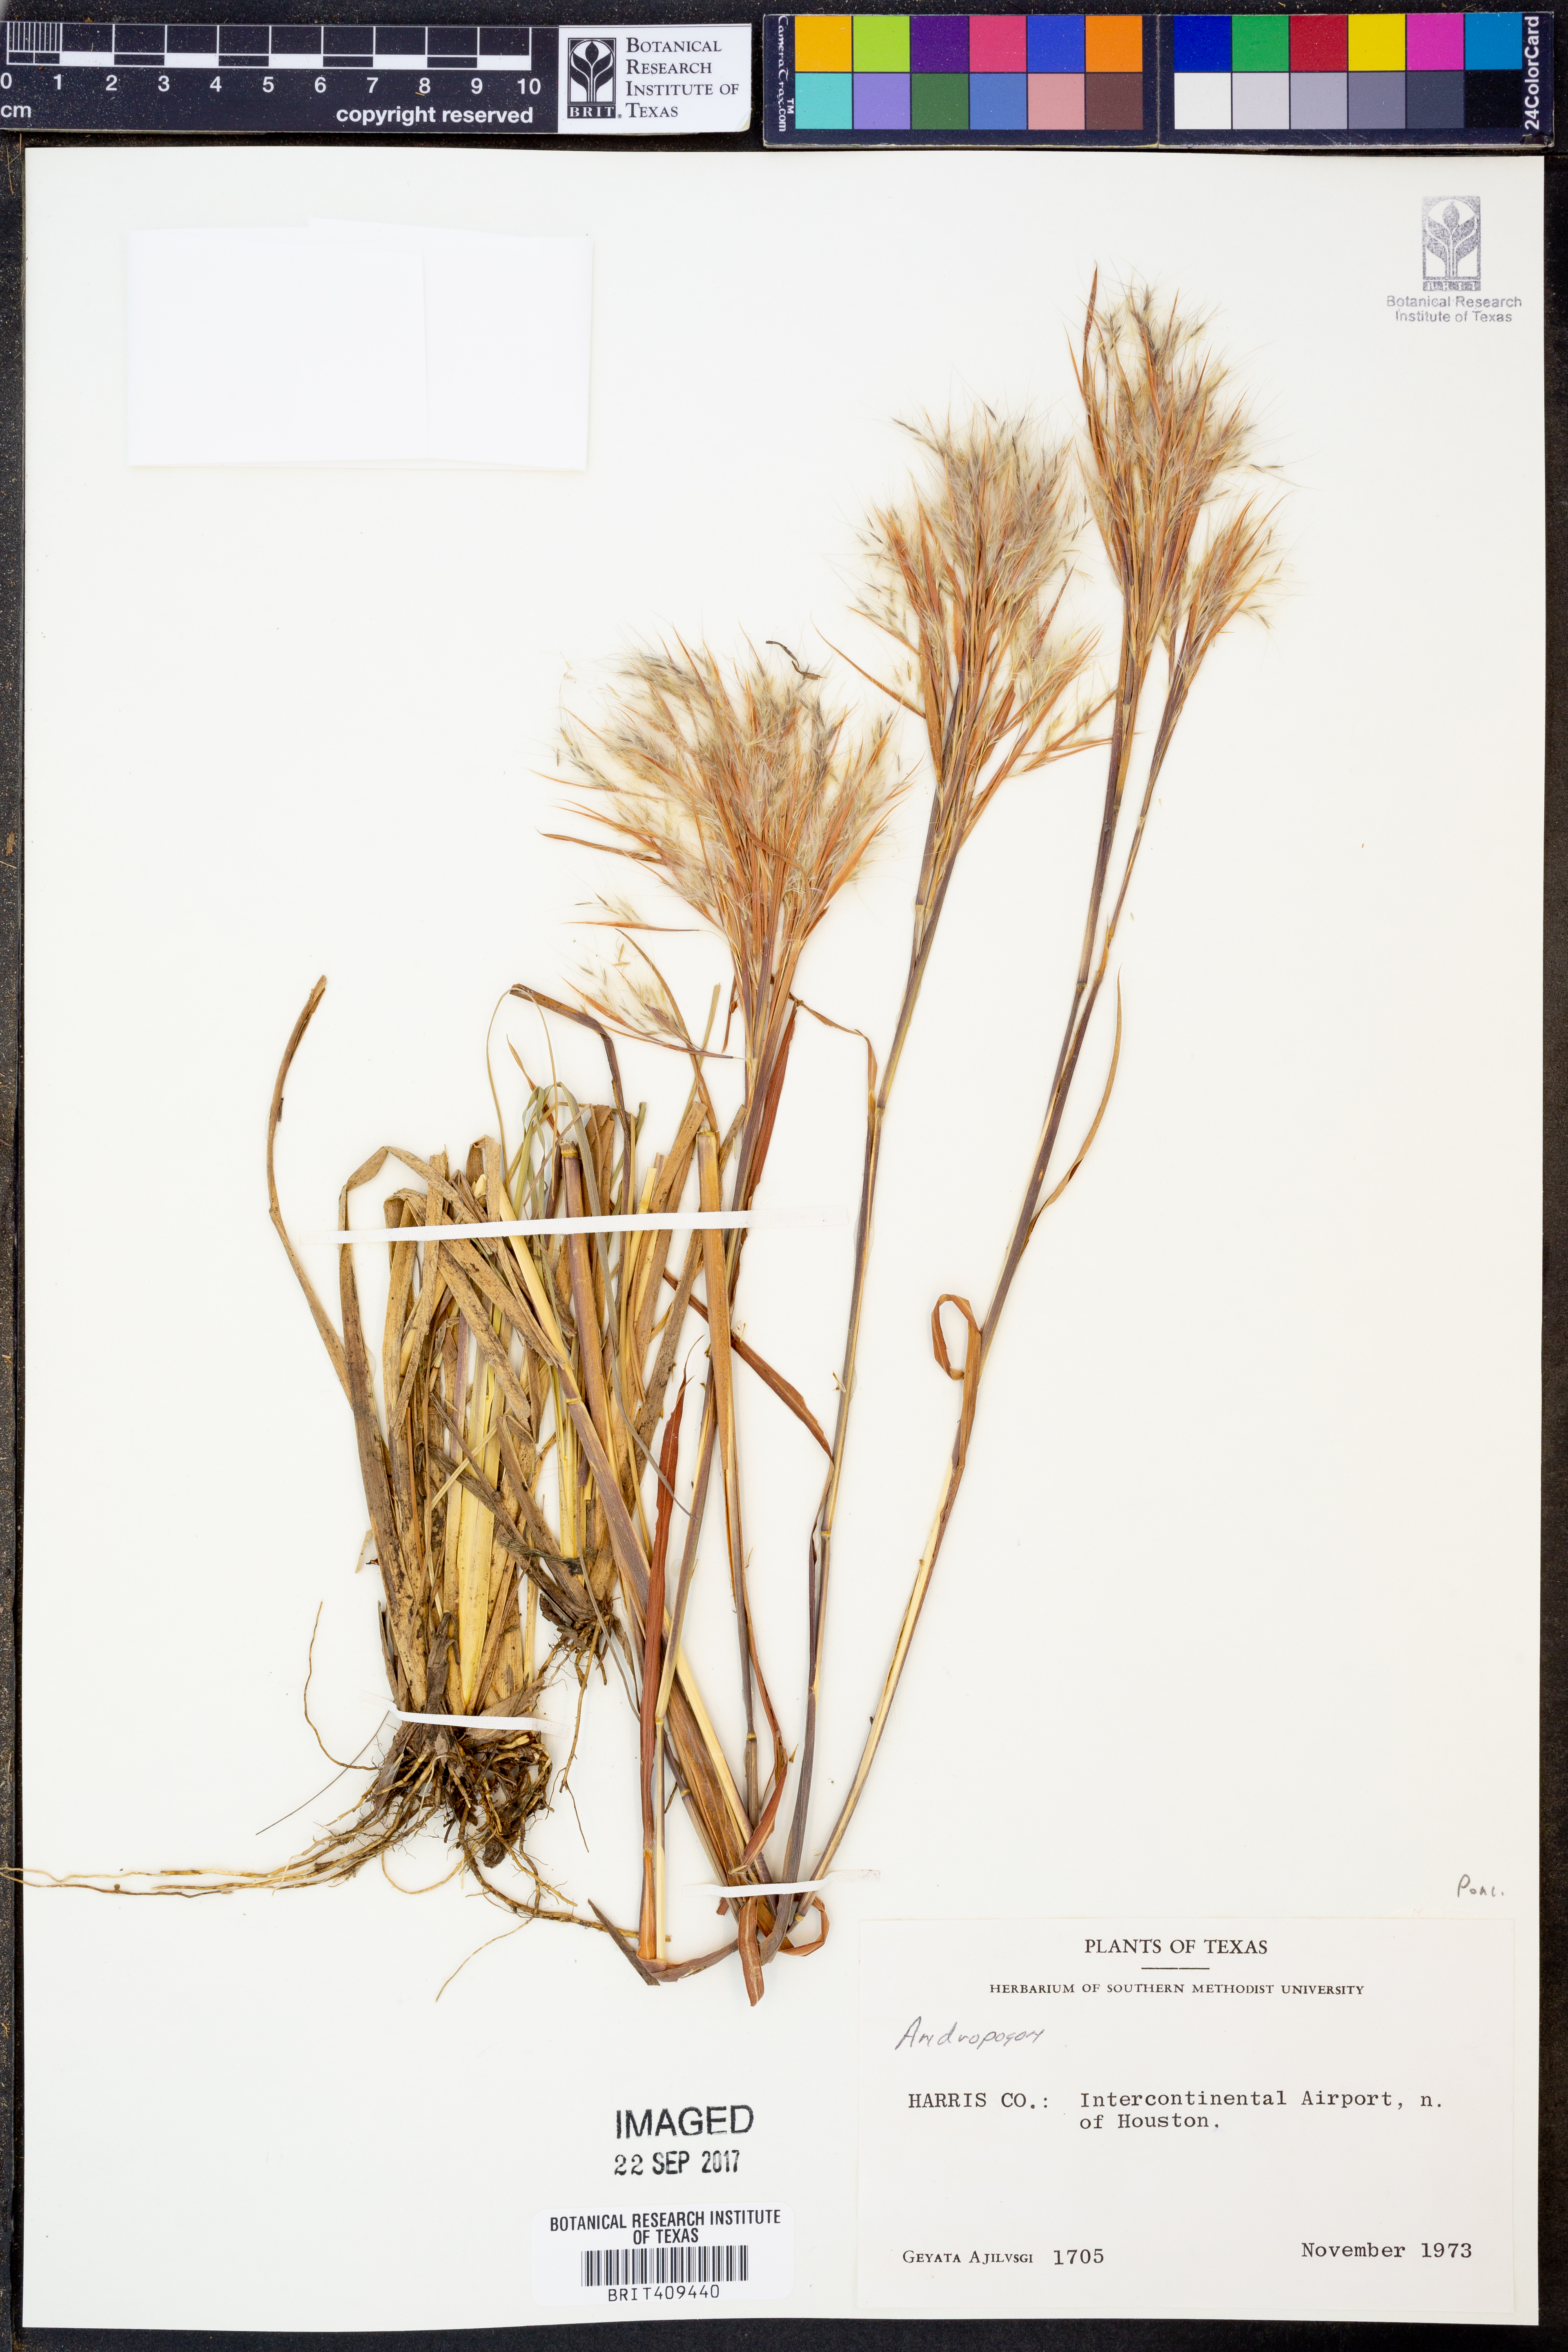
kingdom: Plantae
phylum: Tracheophyta
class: Liliopsida
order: Poales
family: Poaceae
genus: Andropogon
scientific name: Andropogon
